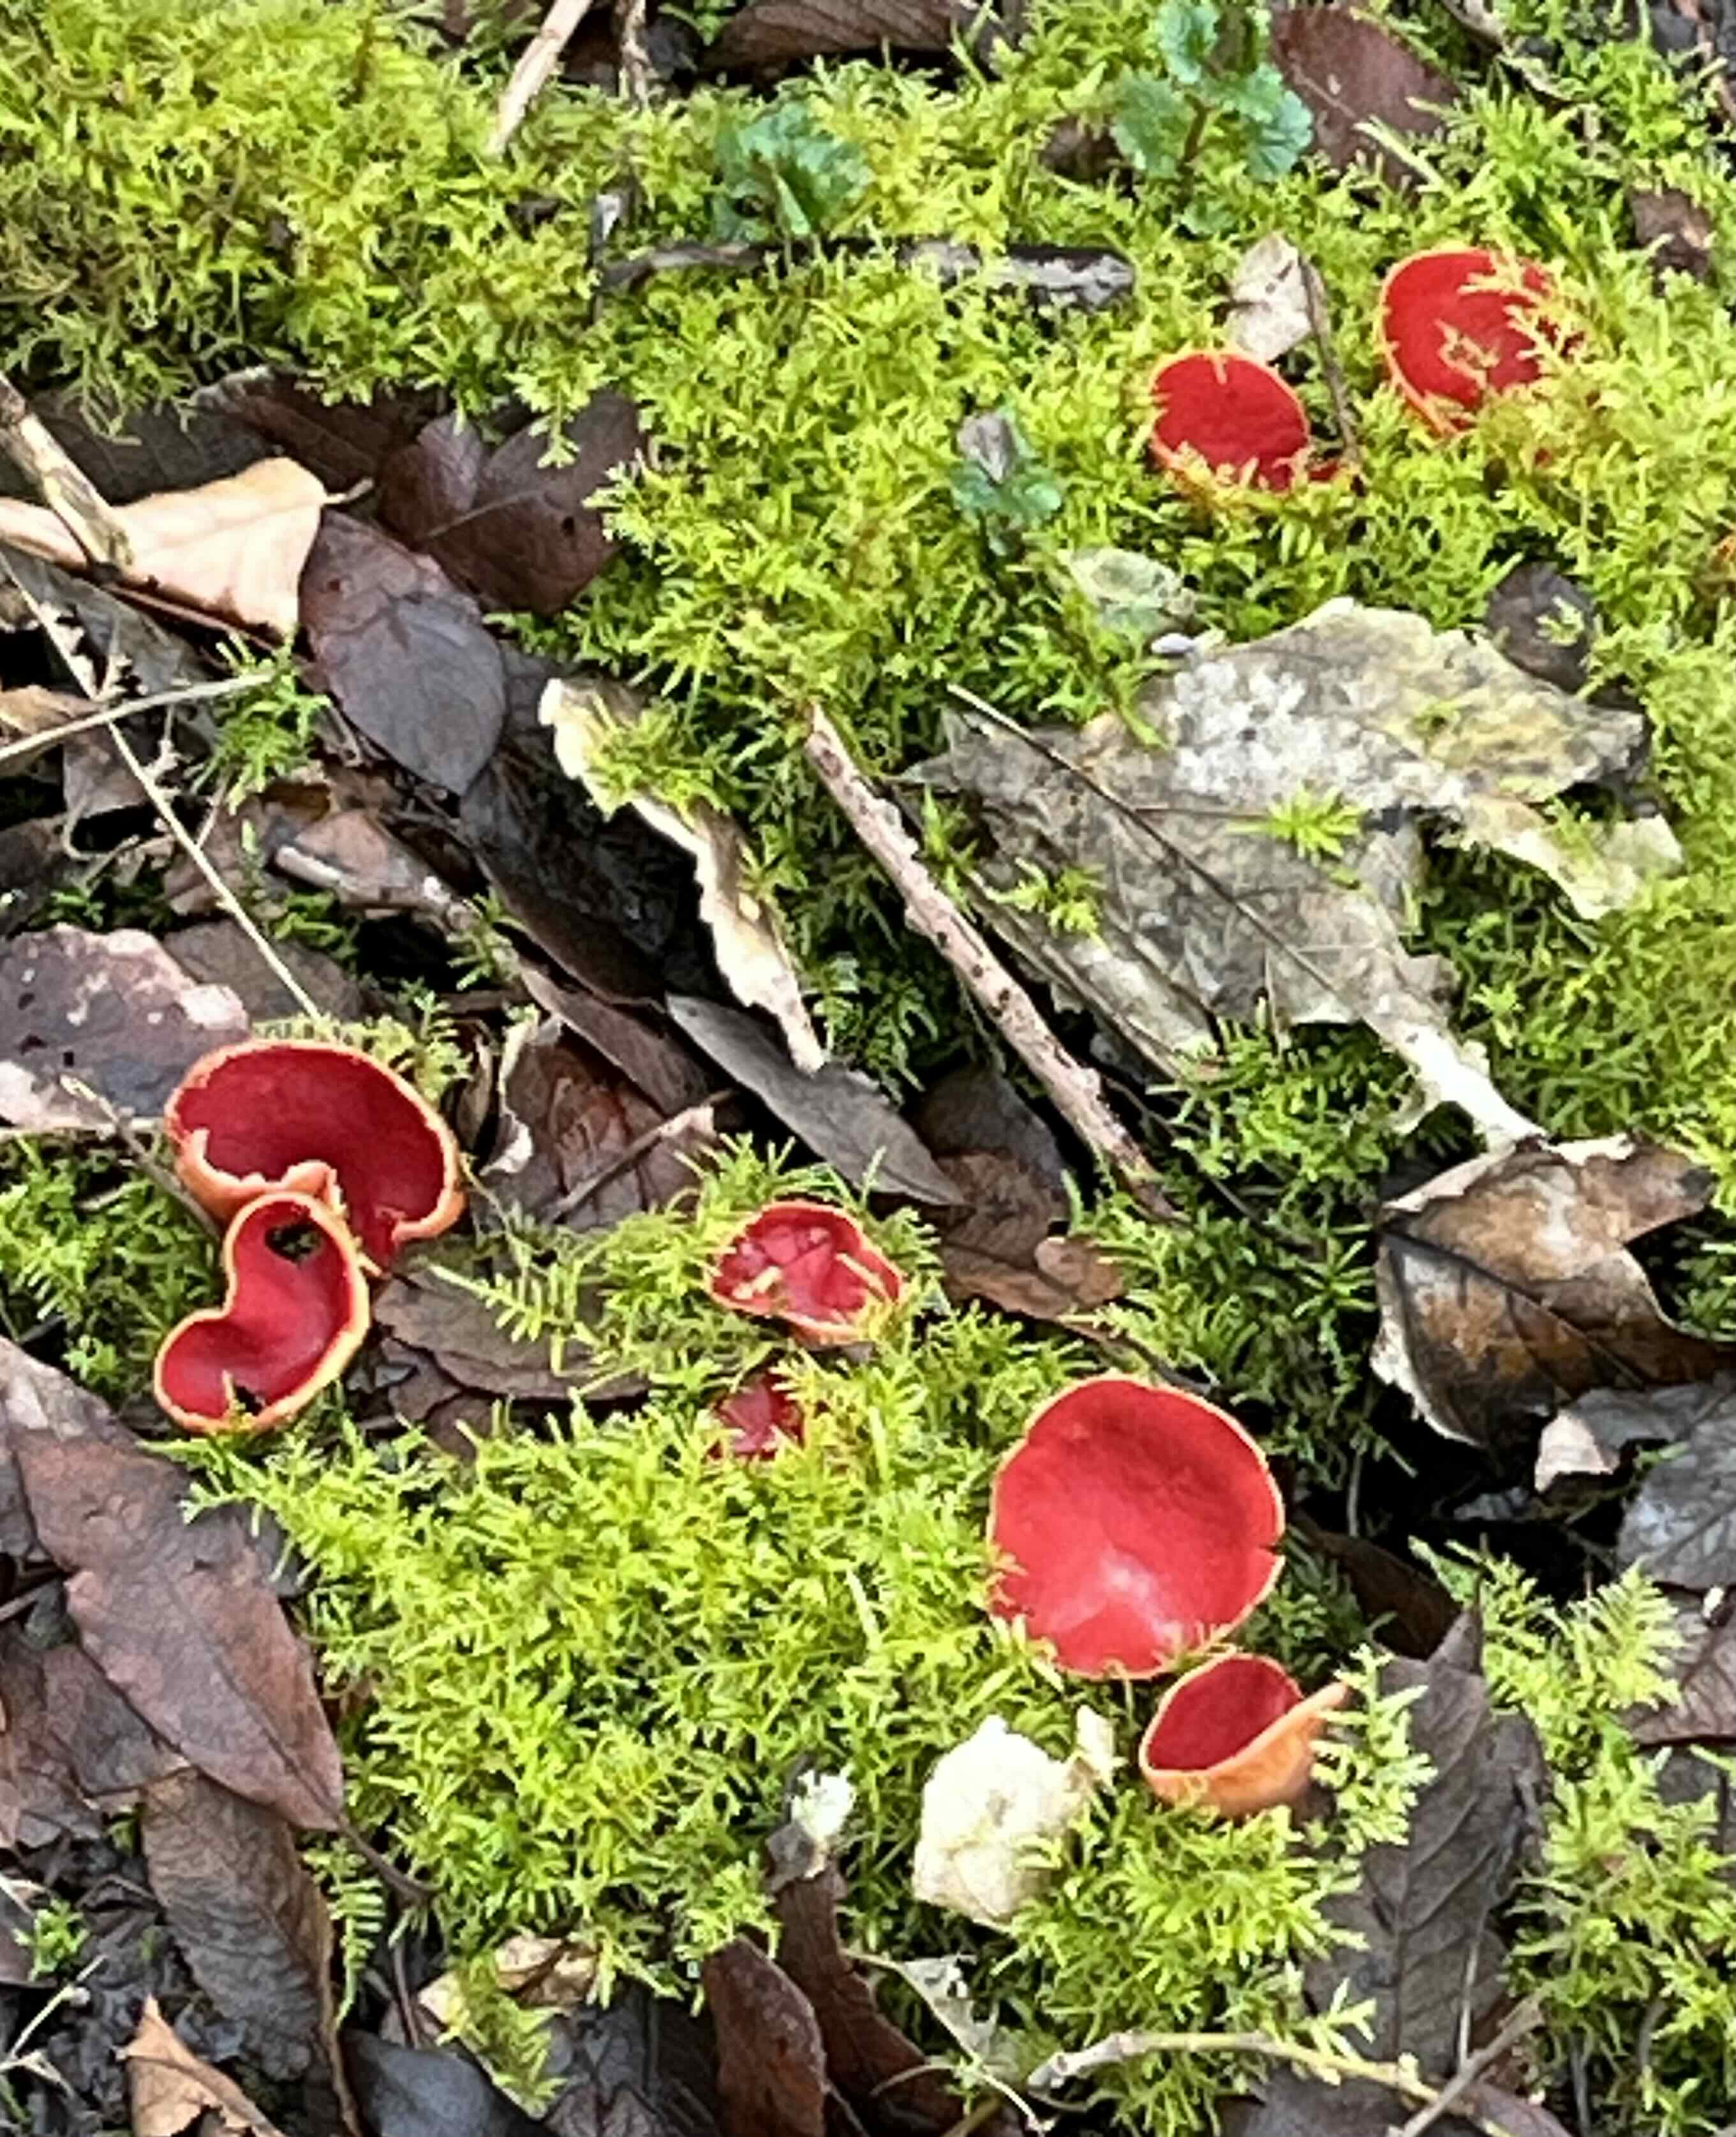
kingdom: Fungi
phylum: Ascomycota
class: Pezizomycetes
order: Pezizales
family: Sarcoscyphaceae
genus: Sarcoscypha
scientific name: Sarcoscypha austriaca
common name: krølhåret pragtbæger
